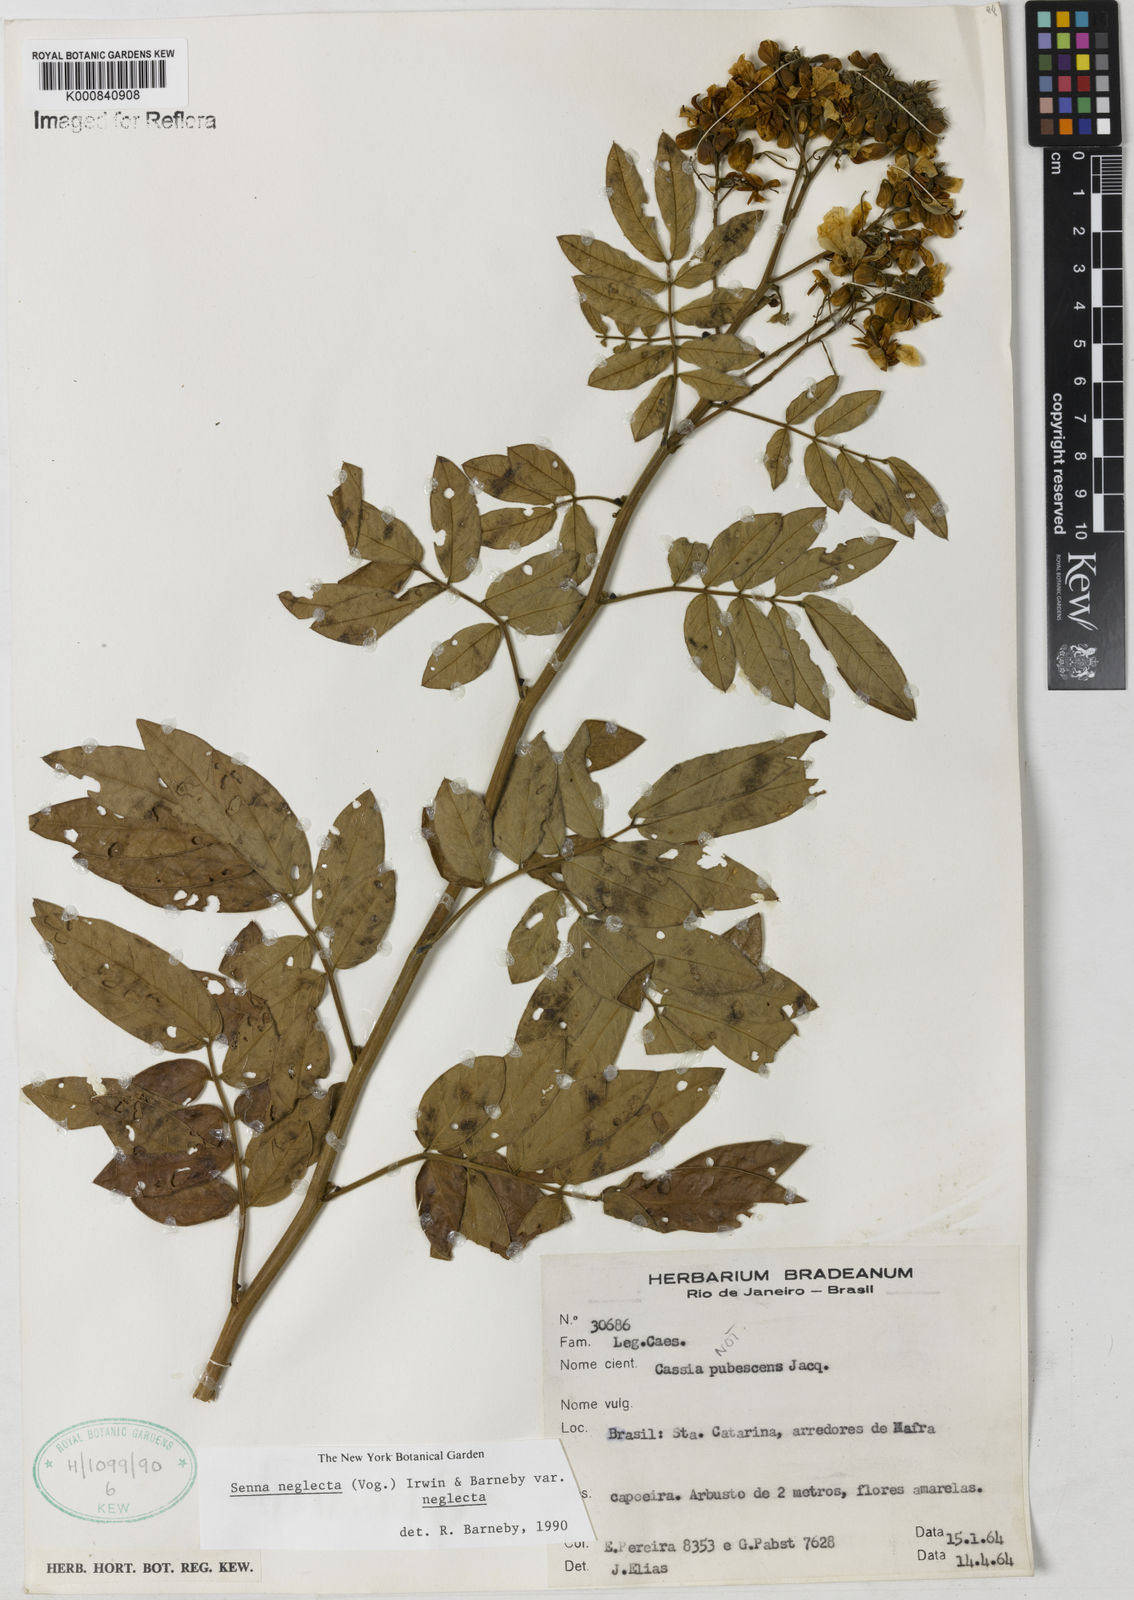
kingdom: Plantae
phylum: Tracheophyta
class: Magnoliopsida
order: Fabales
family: Fabaceae
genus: Senna
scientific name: Senna neglecta
